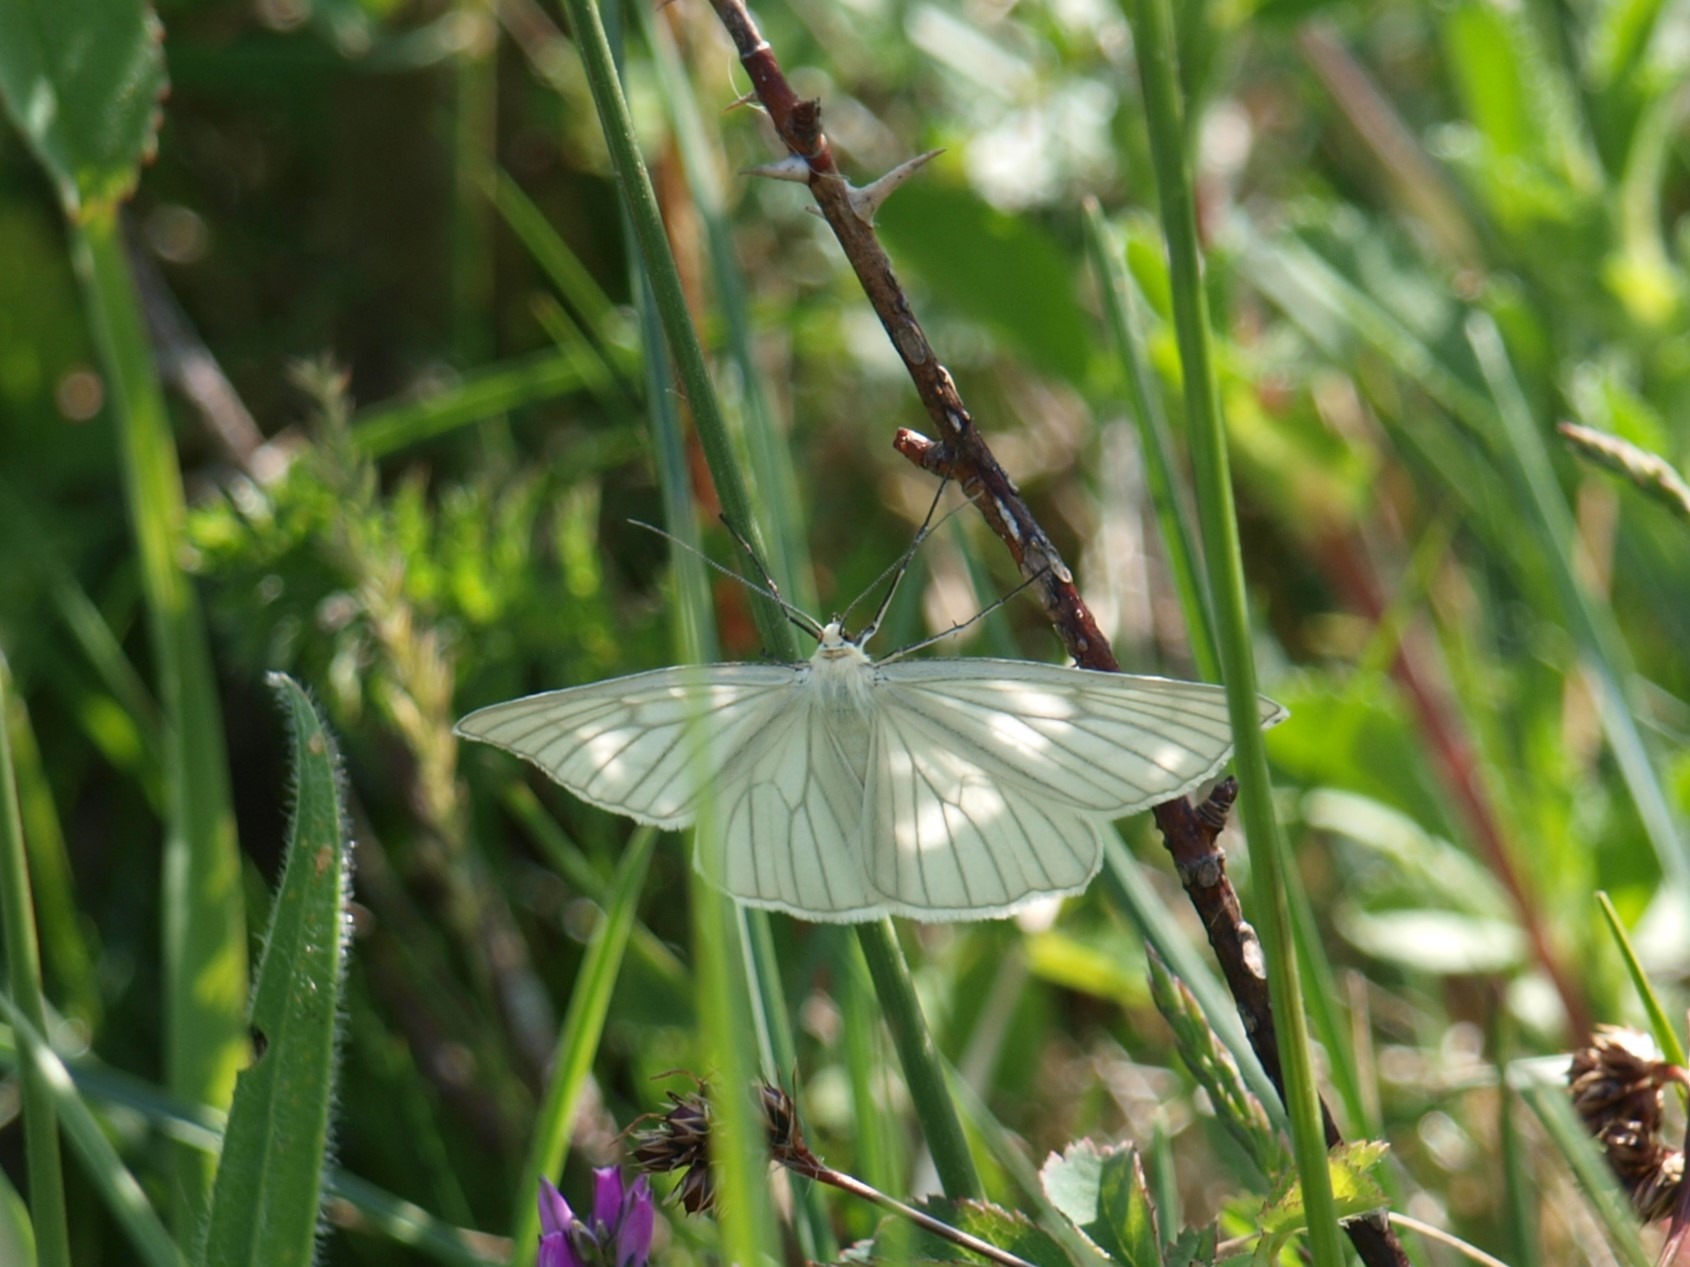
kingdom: Animalia
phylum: Arthropoda
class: Insecta
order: Lepidoptera
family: Geometridae
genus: Siona
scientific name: Siona lineata
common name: Hvidvingemåler
